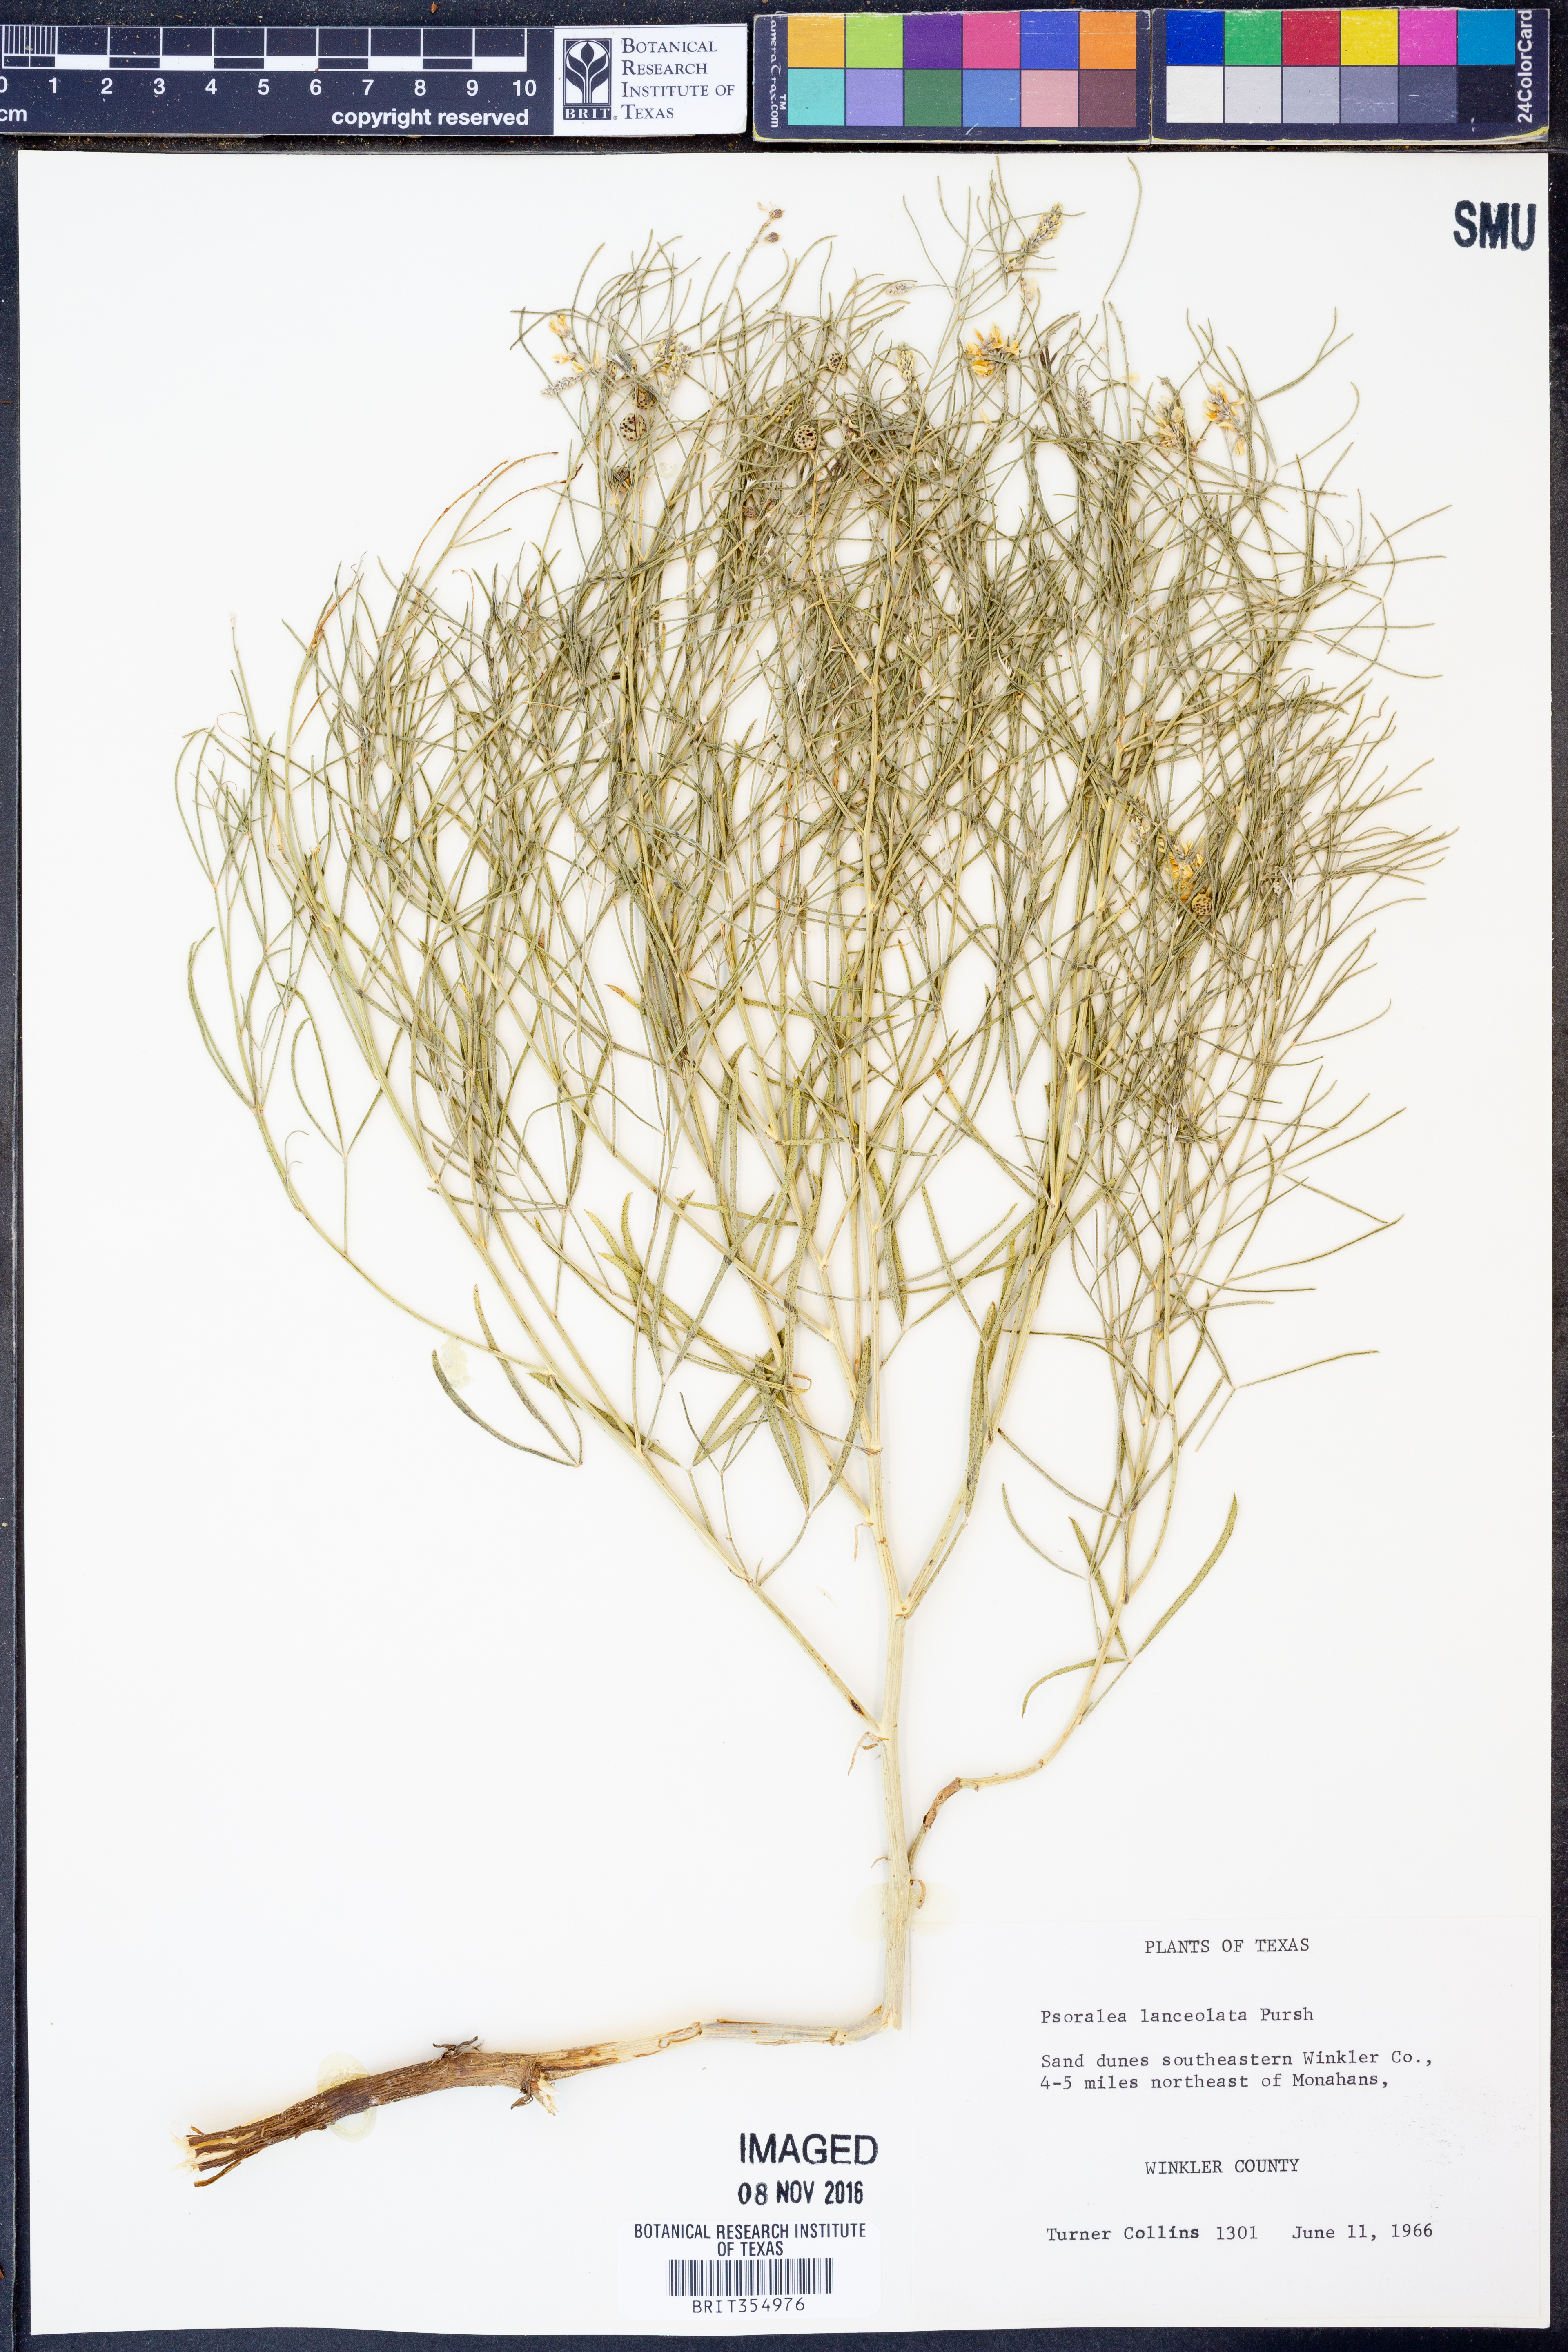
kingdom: Plantae
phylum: Tracheophyta
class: Magnoliopsida
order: Fabales
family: Fabaceae
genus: Ladeania
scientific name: Ladeania lanceolata
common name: Dune scurf-pea
